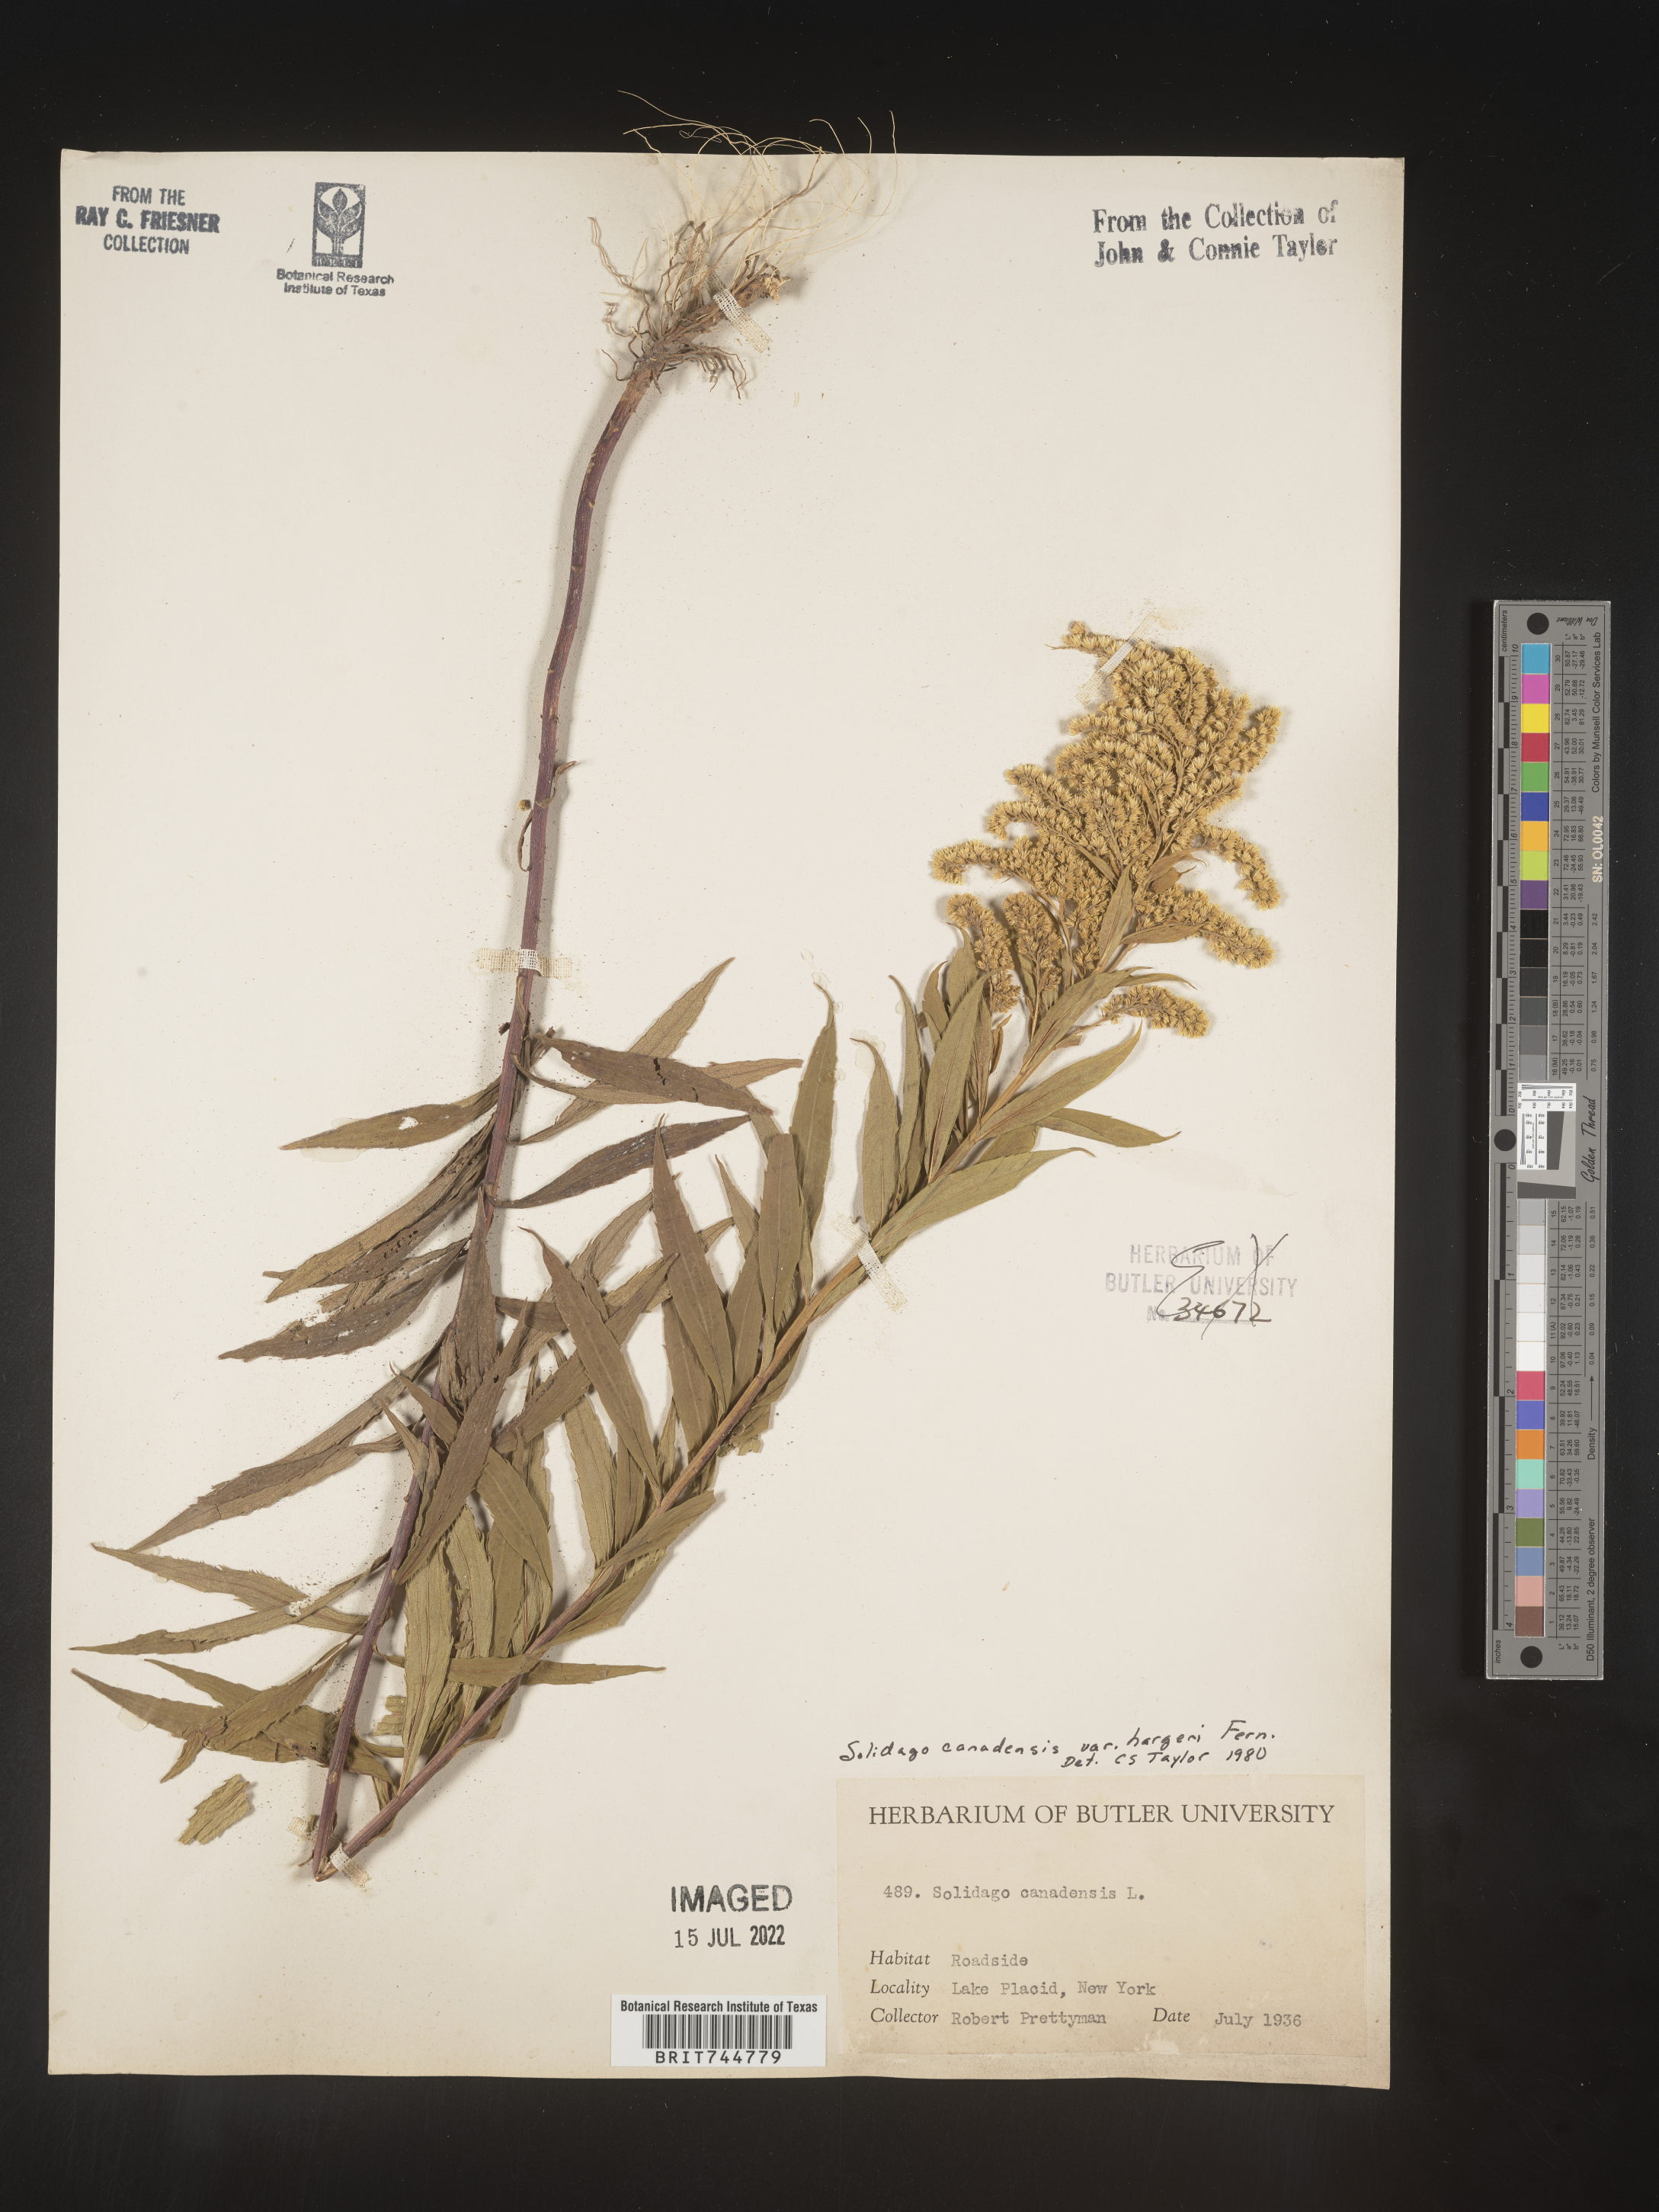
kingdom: Plantae
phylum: Tracheophyta
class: Magnoliopsida
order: Asterales
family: Asteraceae
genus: Solidago
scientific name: Solidago canadensis
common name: Canada goldenrod
